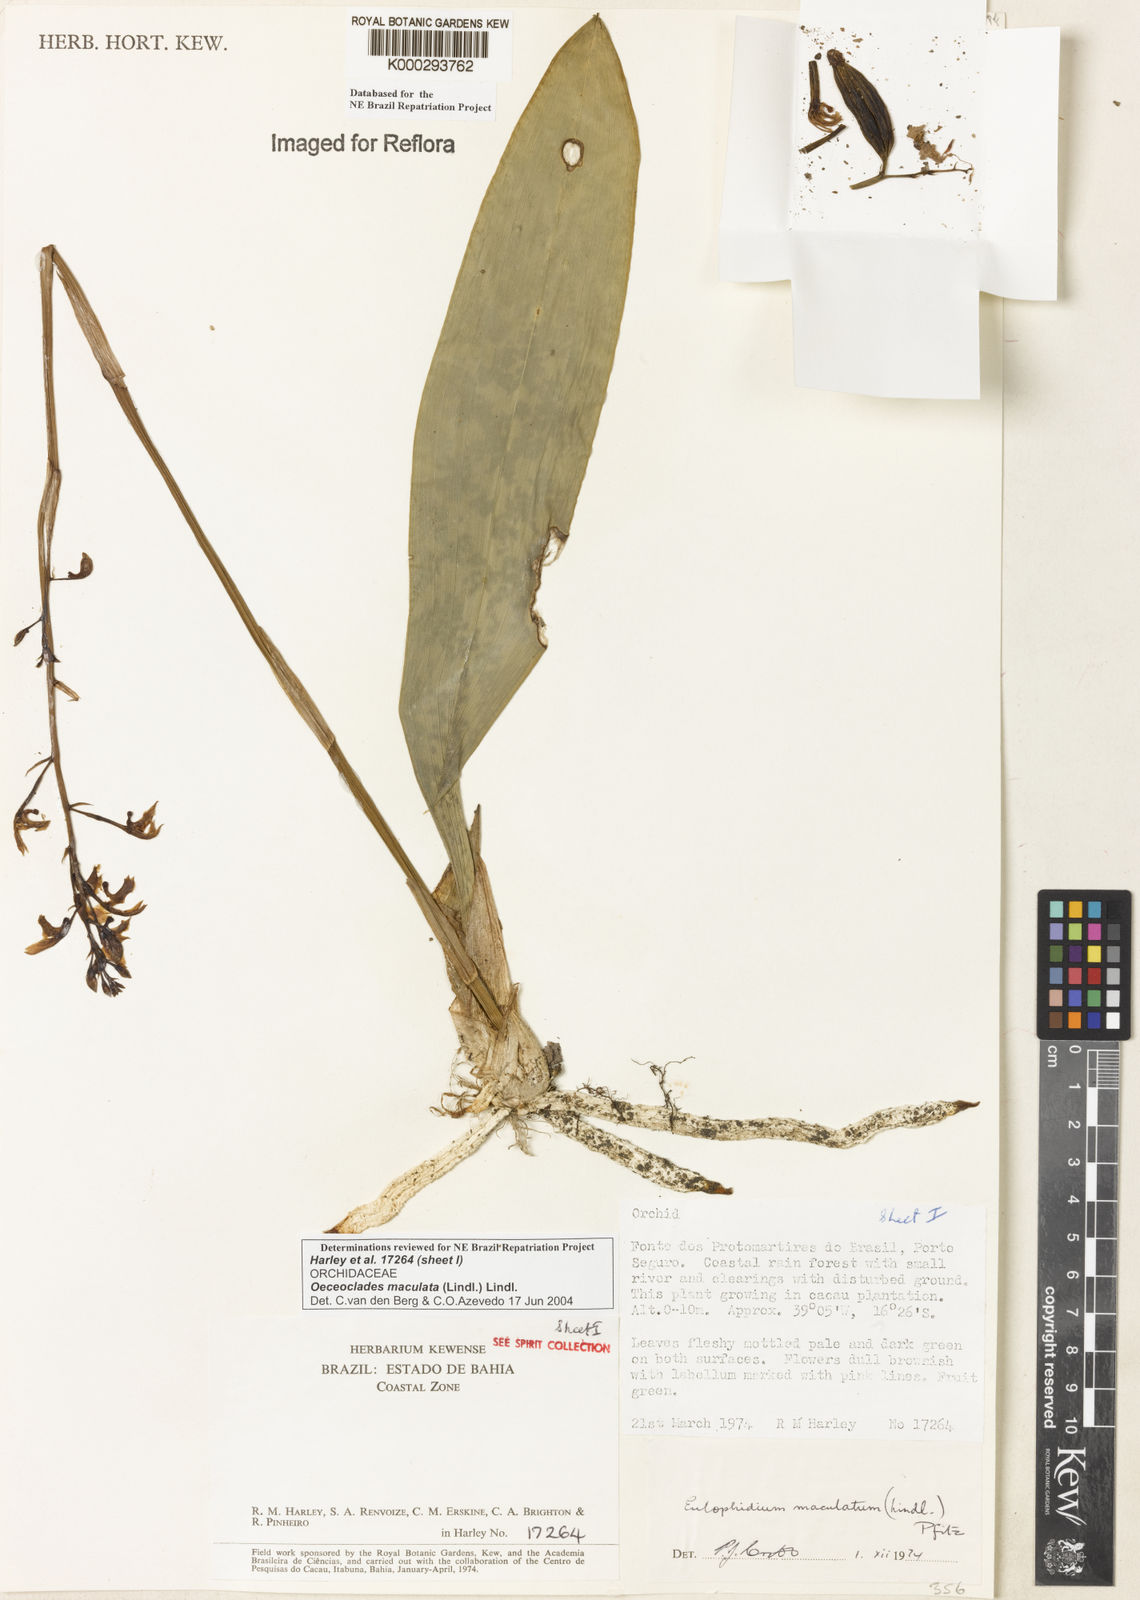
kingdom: Plantae
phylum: Tracheophyta
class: Liliopsida
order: Asparagales
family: Orchidaceae
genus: Eulophia
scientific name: Eulophia maculata
